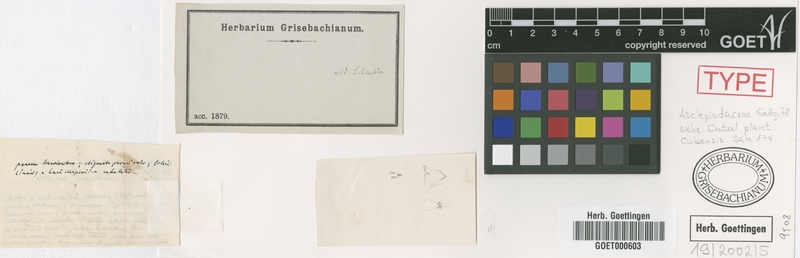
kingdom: Plantae
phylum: Tracheophyta
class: Magnoliopsida
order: Gentianales
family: Apocynaceae
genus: Metastelma
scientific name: Metastelma penicillatum
